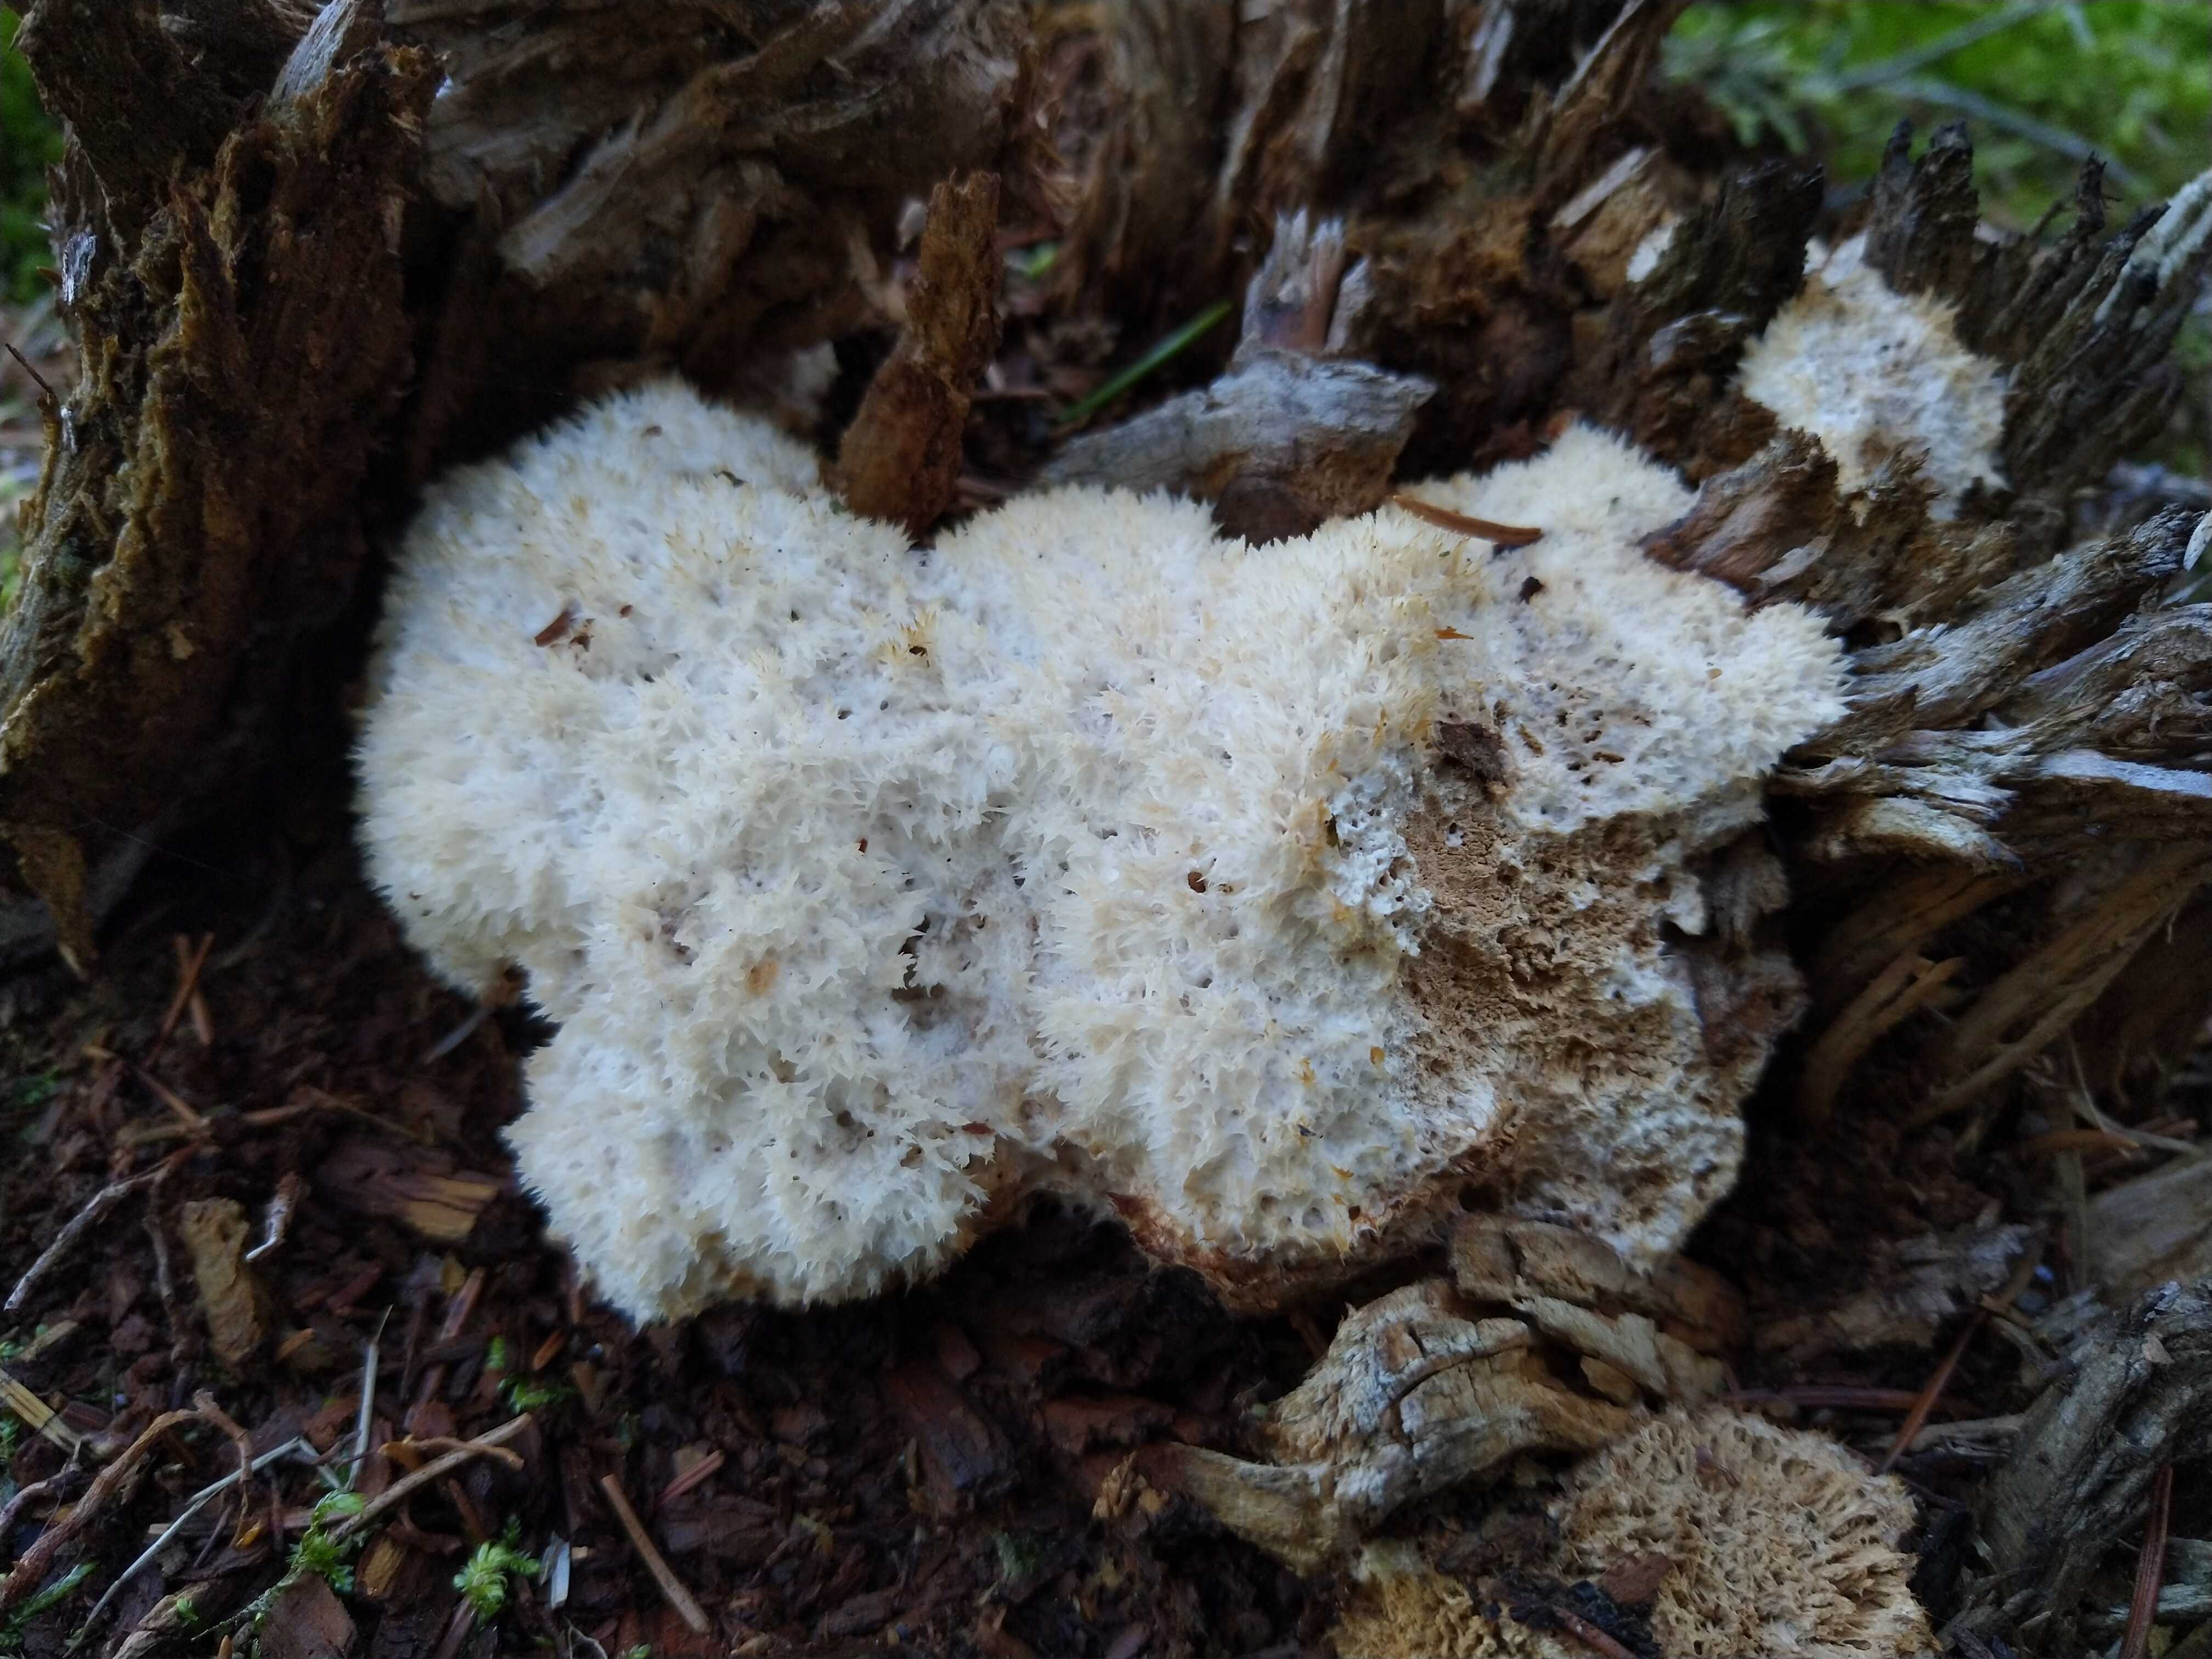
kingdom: Fungi
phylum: Basidiomycota
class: Agaricomycetes
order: Polyporales
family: Dacryobolaceae
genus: Postia
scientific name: Postia ptychogaster
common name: støvende kødporesvamp
